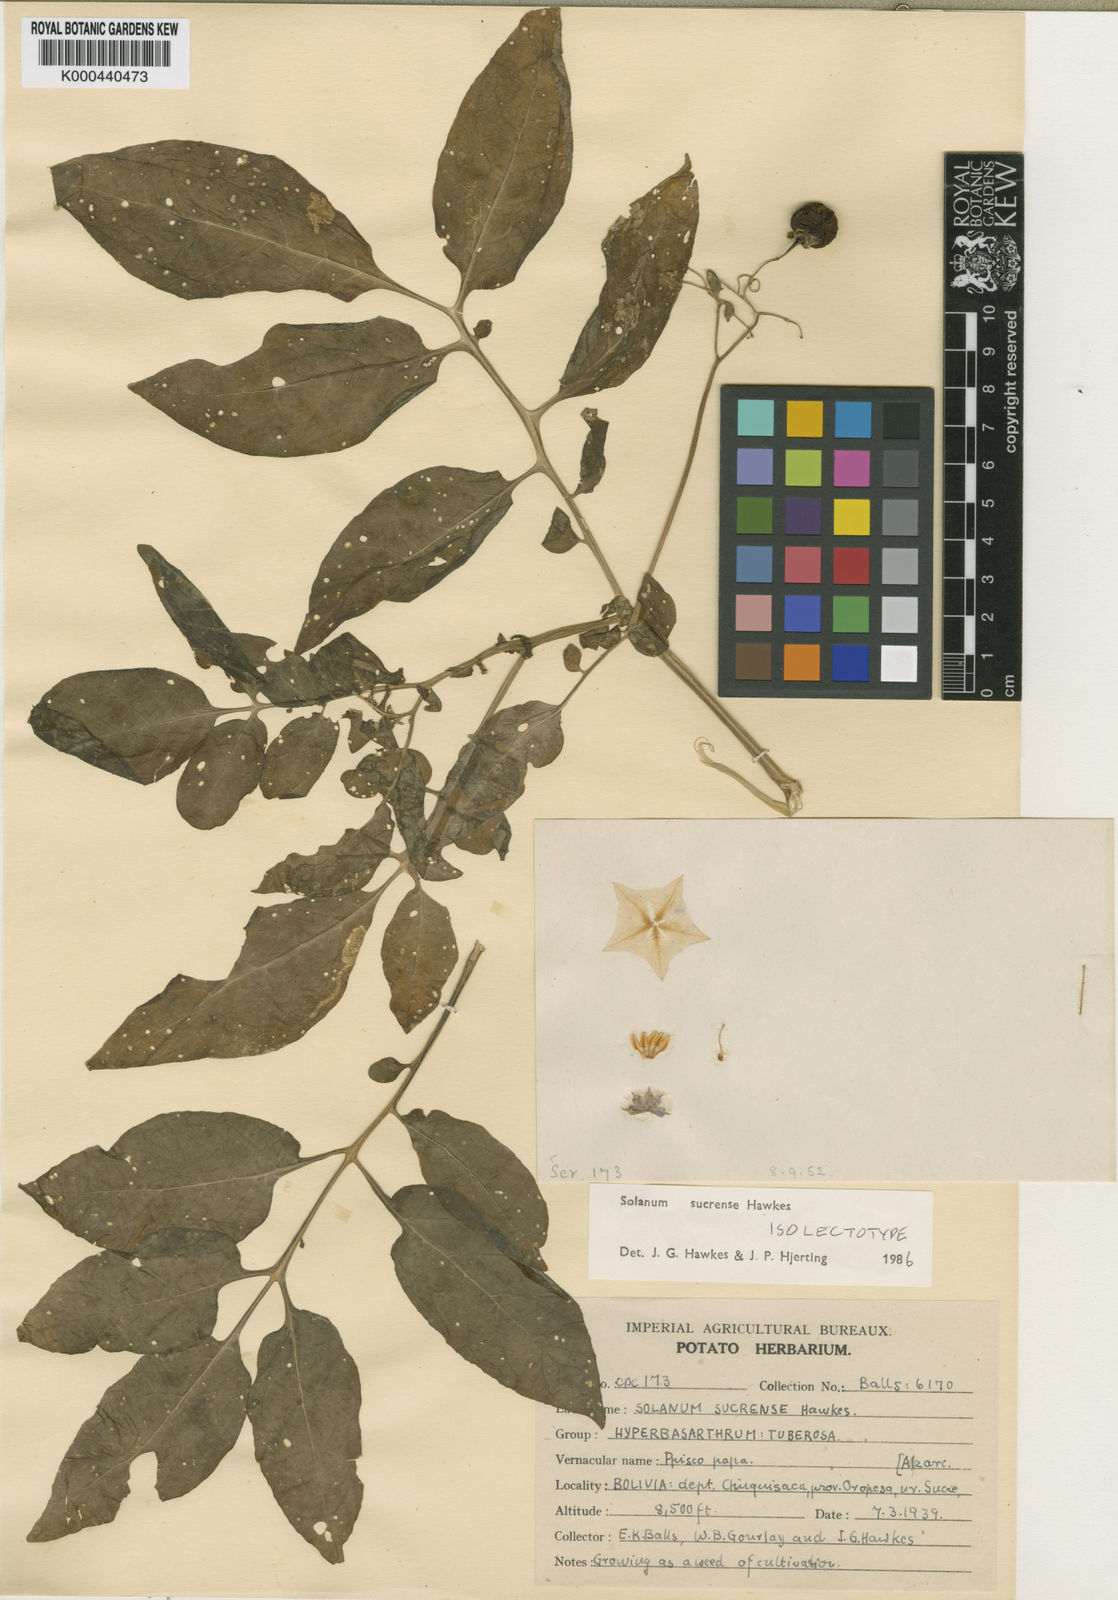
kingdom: Plantae
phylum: Tracheophyta
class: Magnoliopsida
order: Solanales
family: Solanaceae
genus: Solanum
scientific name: Solanum brevicaule
